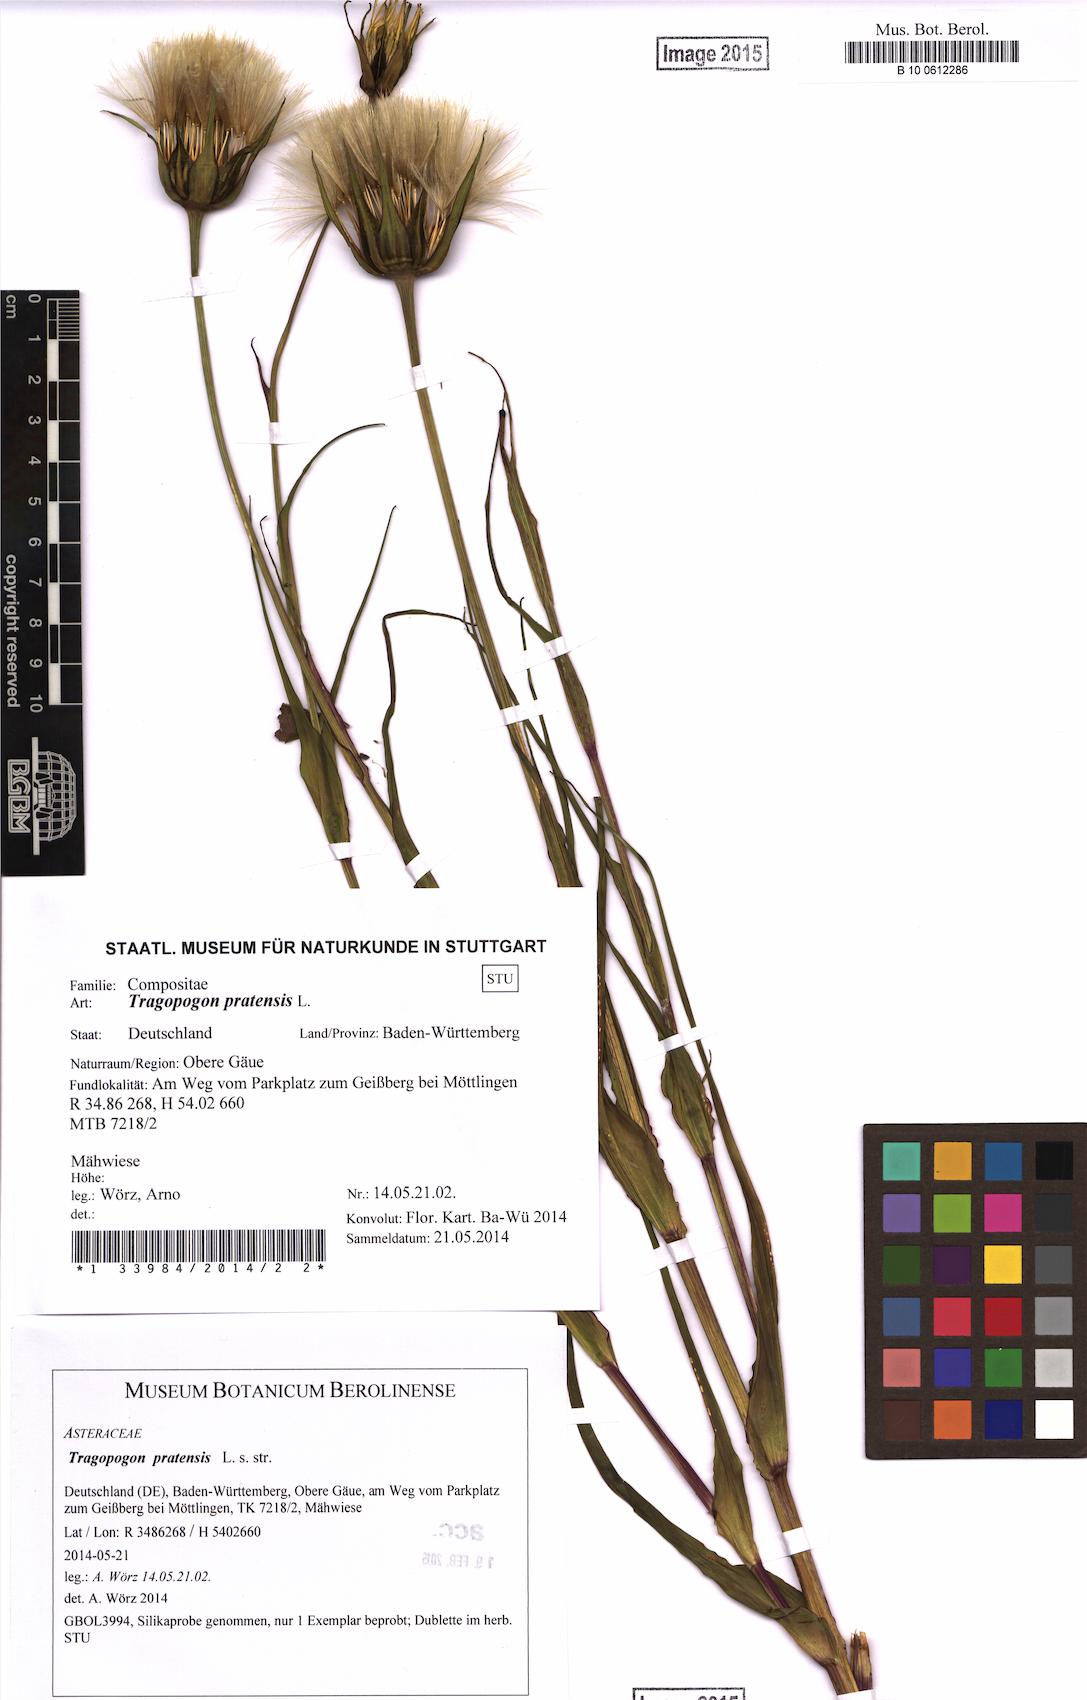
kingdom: Plantae
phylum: Tracheophyta
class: Magnoliopsida
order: Asterales
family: Asteraceae
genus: Tragopogon
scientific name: Tragopogon pratensis
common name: Goat's-beard
